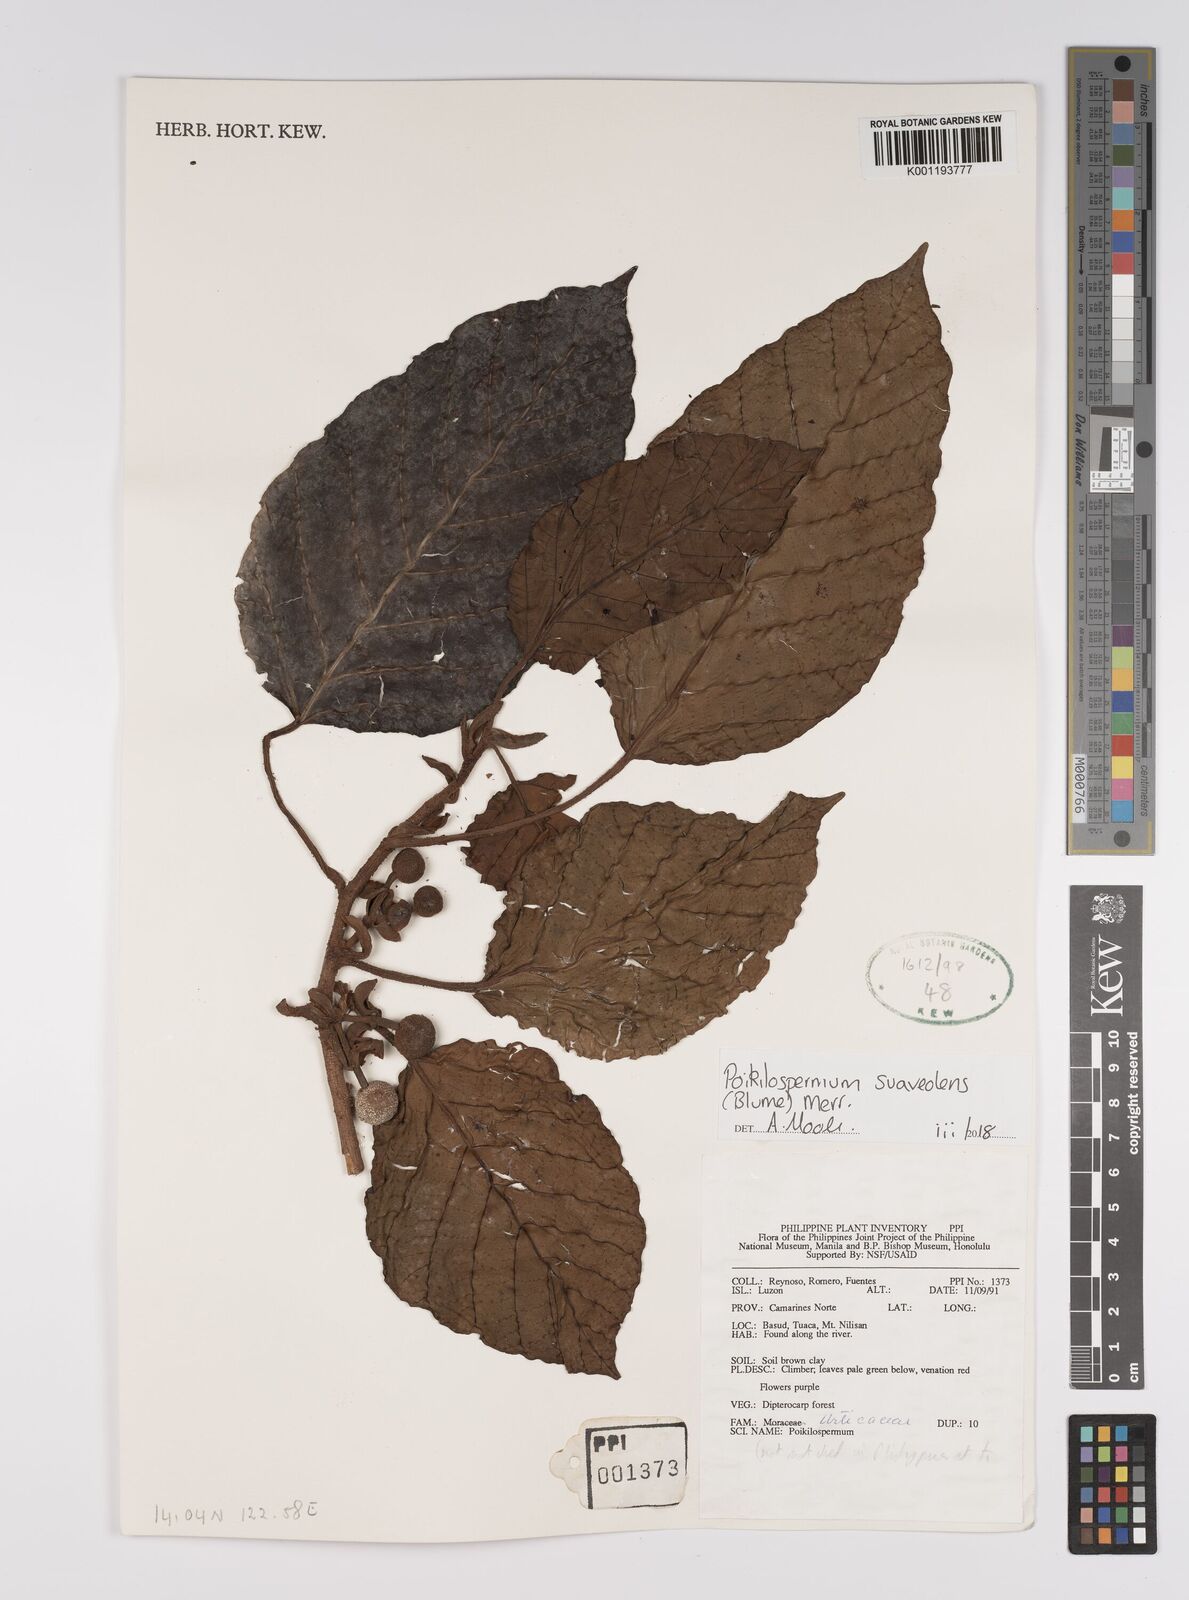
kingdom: Plantae
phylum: Tracheophyta
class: Magnoliopsida
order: Rosales
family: Urticaceae
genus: Poikilospermum
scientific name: Poikilospermum suaveolens
